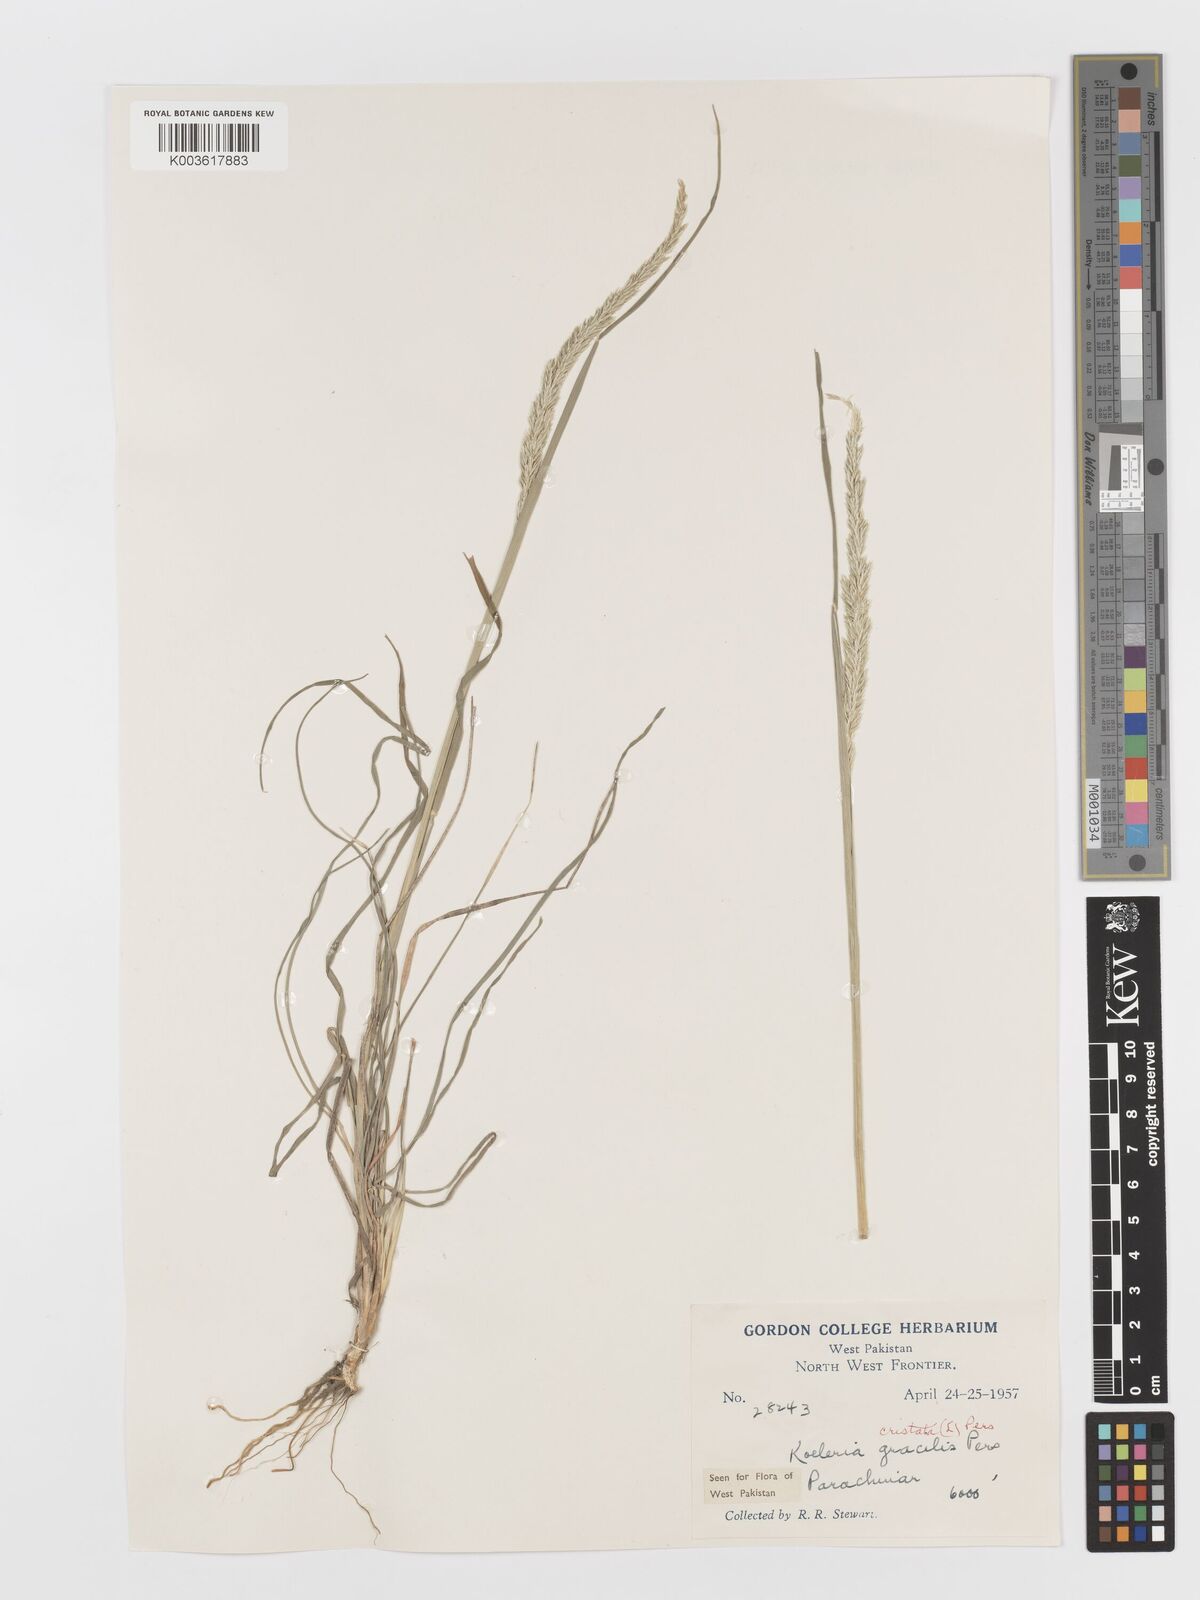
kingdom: Plantae
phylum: Tracheophyta
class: Liliopsida
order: Poales
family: Poaceae
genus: Koeleria
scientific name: Koeleria
